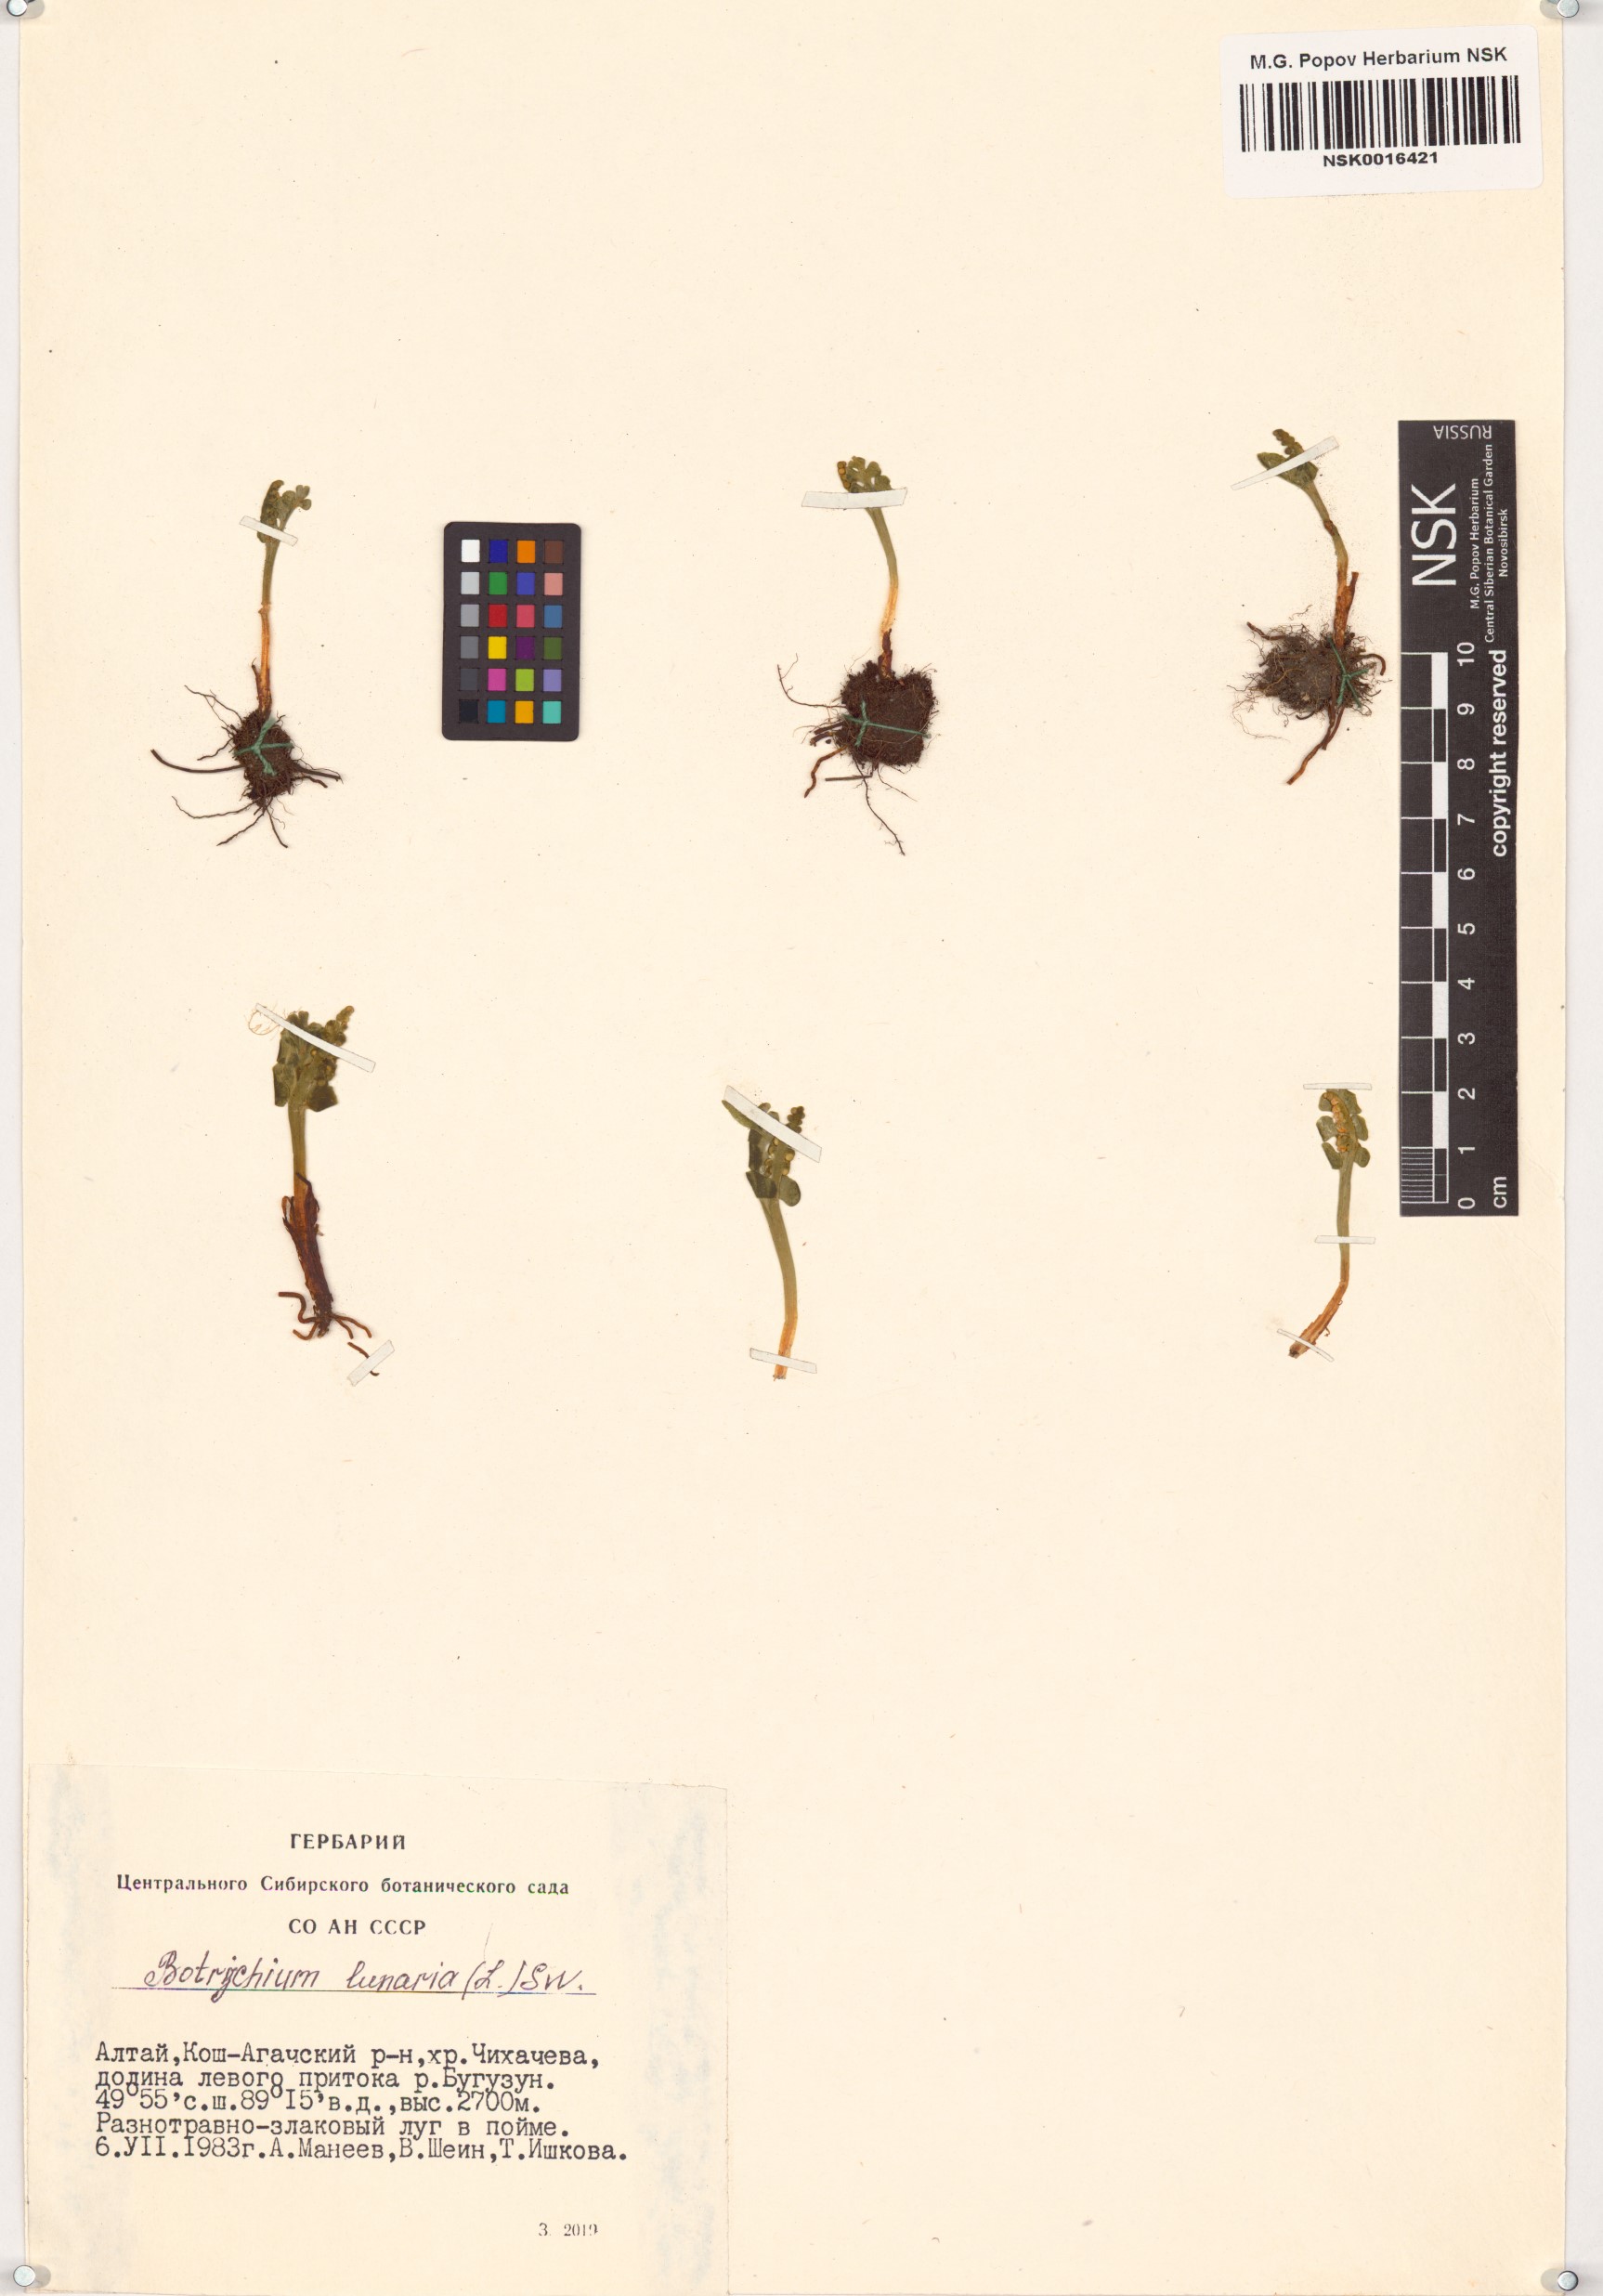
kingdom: Plantae
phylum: Tracheophyta
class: Polypodiopsida
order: Ophioglossales
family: Ophioglossaceae
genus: Botrychium
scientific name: Botrychium lunaria
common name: Moonwort
